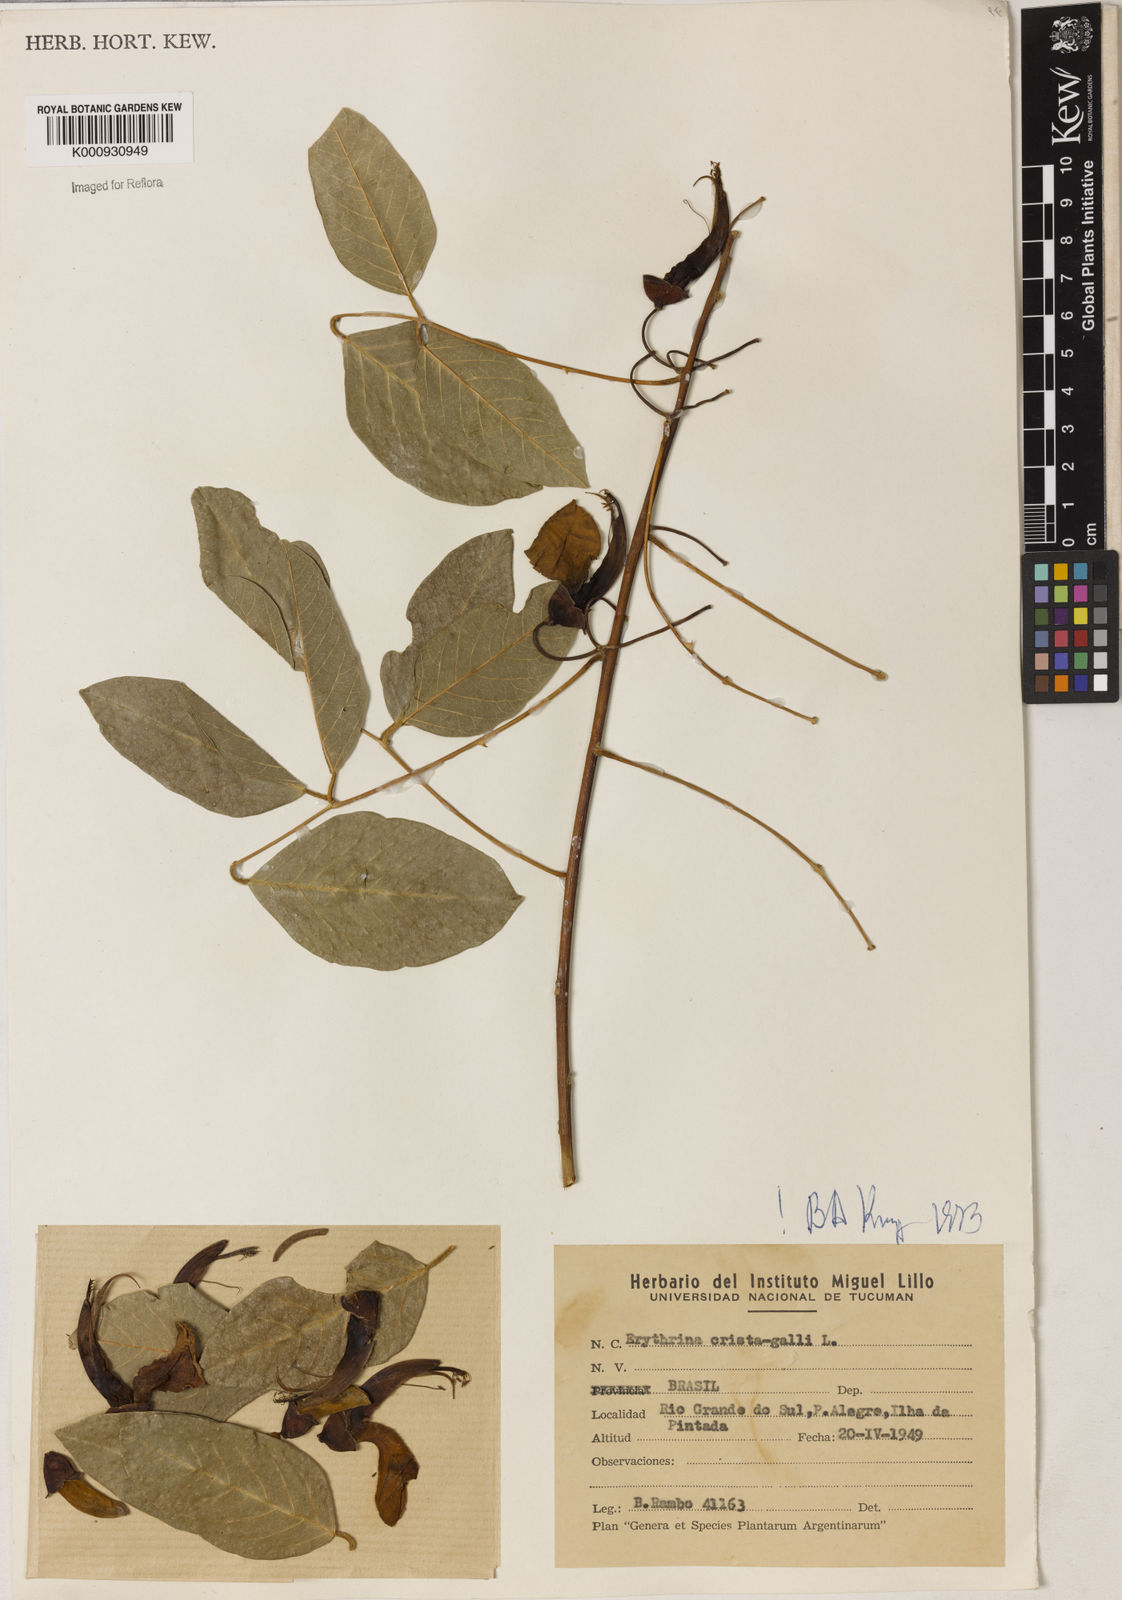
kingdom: Plantae
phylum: Tracheophyta
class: Magnoliopsida
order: Fabales
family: Fabaceae
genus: Erythrina
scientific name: Erythrina crista-galli
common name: Cockspur coral tree
